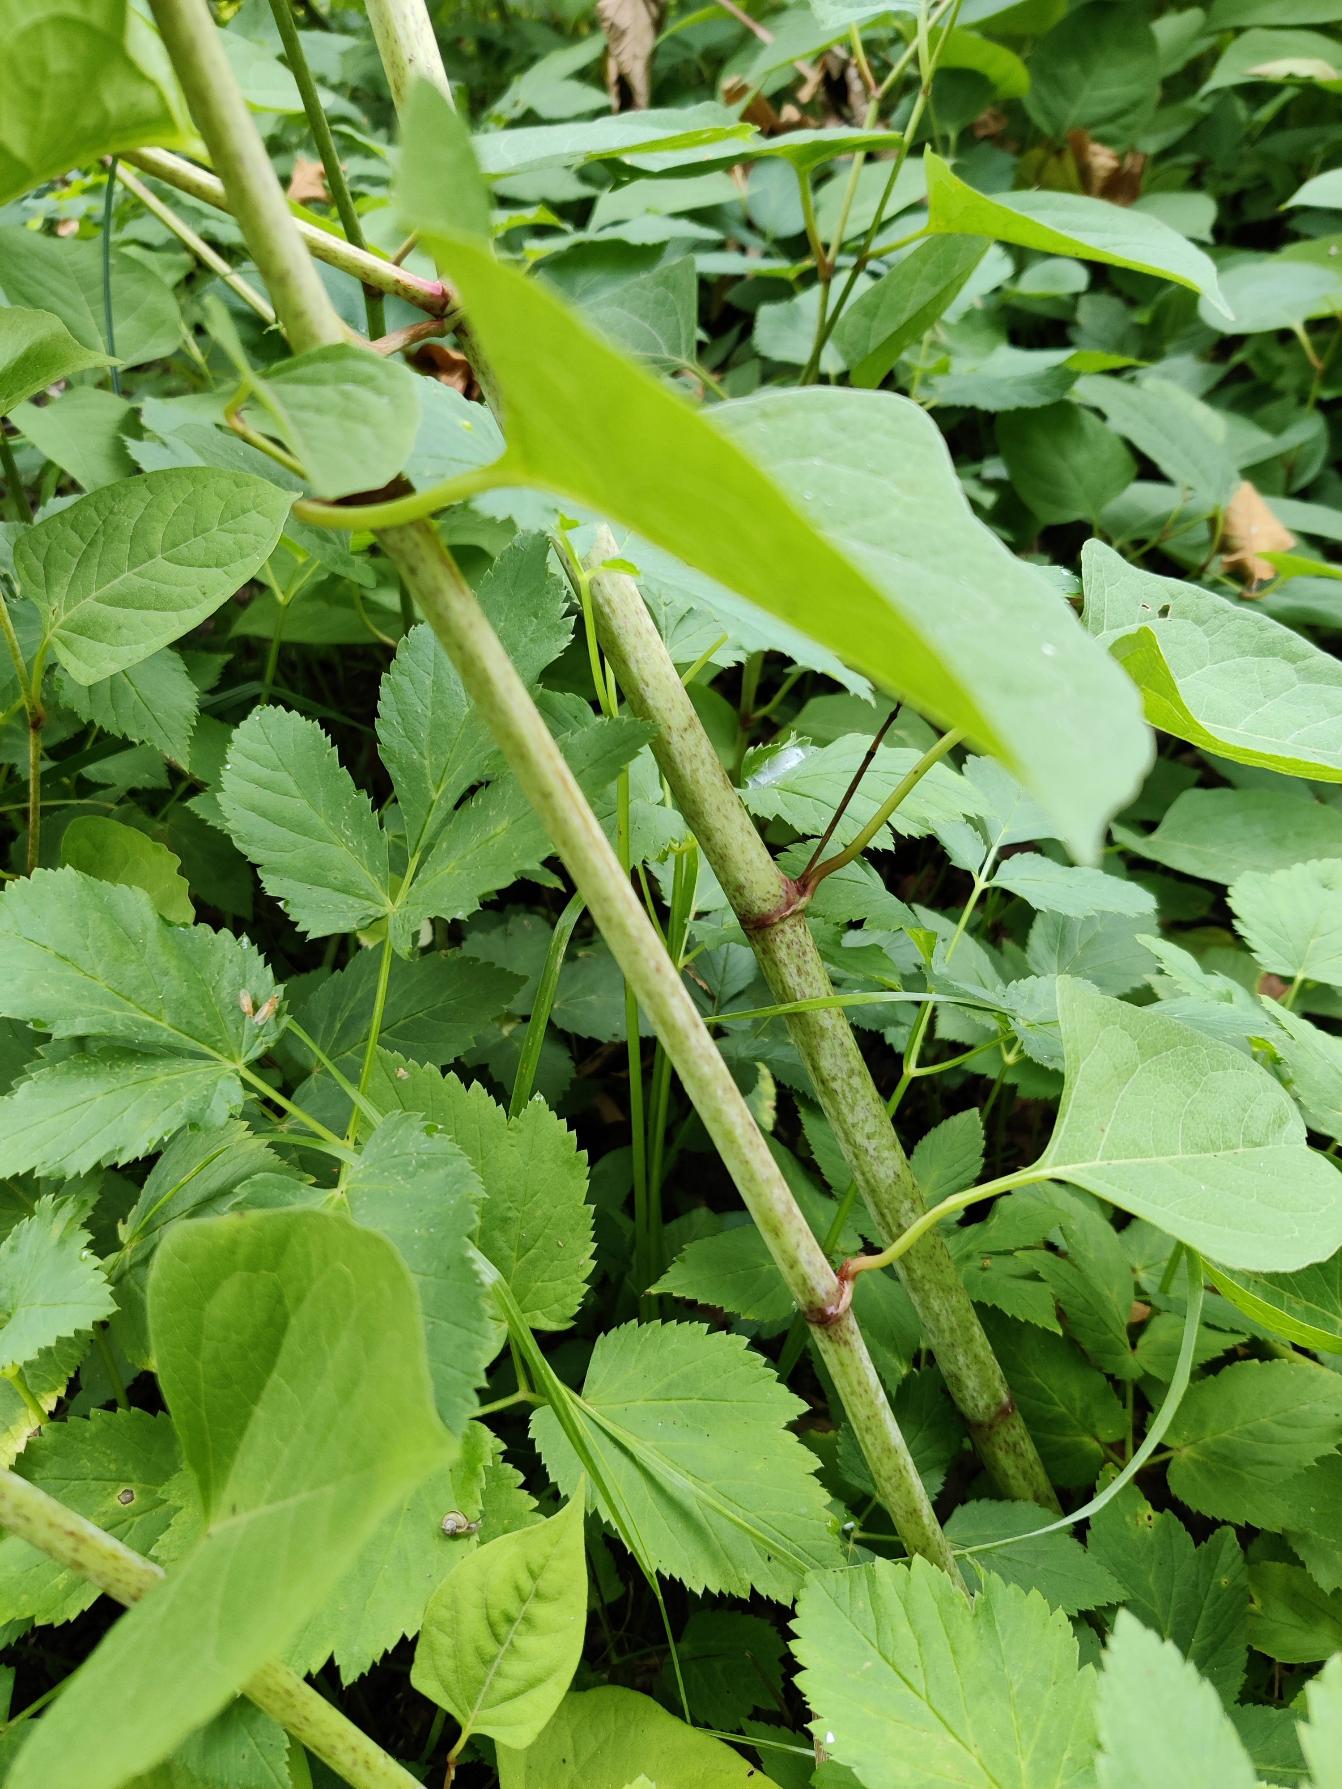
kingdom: Plantae
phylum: Tracheophyta
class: Magnoliopsida
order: Caryophyllales
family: Polygonaceae
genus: Reynoutria
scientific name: Reynoutria japonica
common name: Japan-pileurt
